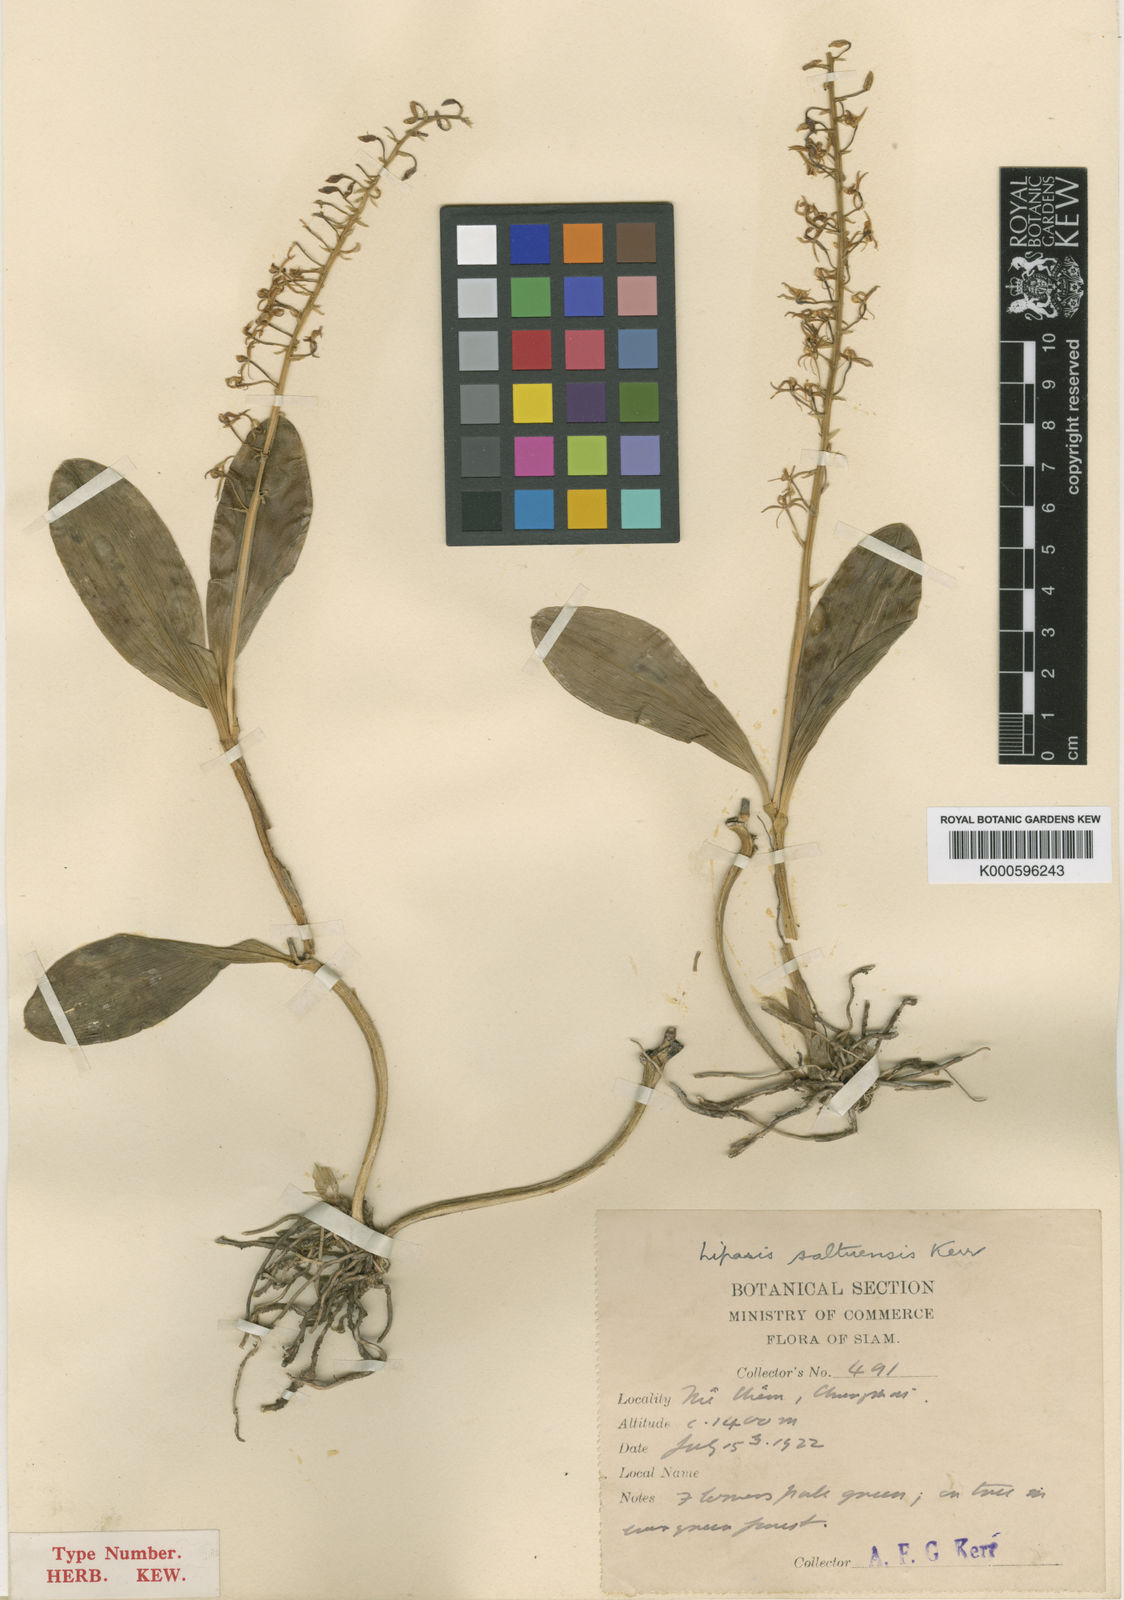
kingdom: Plantae
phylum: Tracheophyta
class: Liliopsida
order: Asparagales
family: Orchidaceae
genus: Liparis
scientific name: Liparis bistriata
